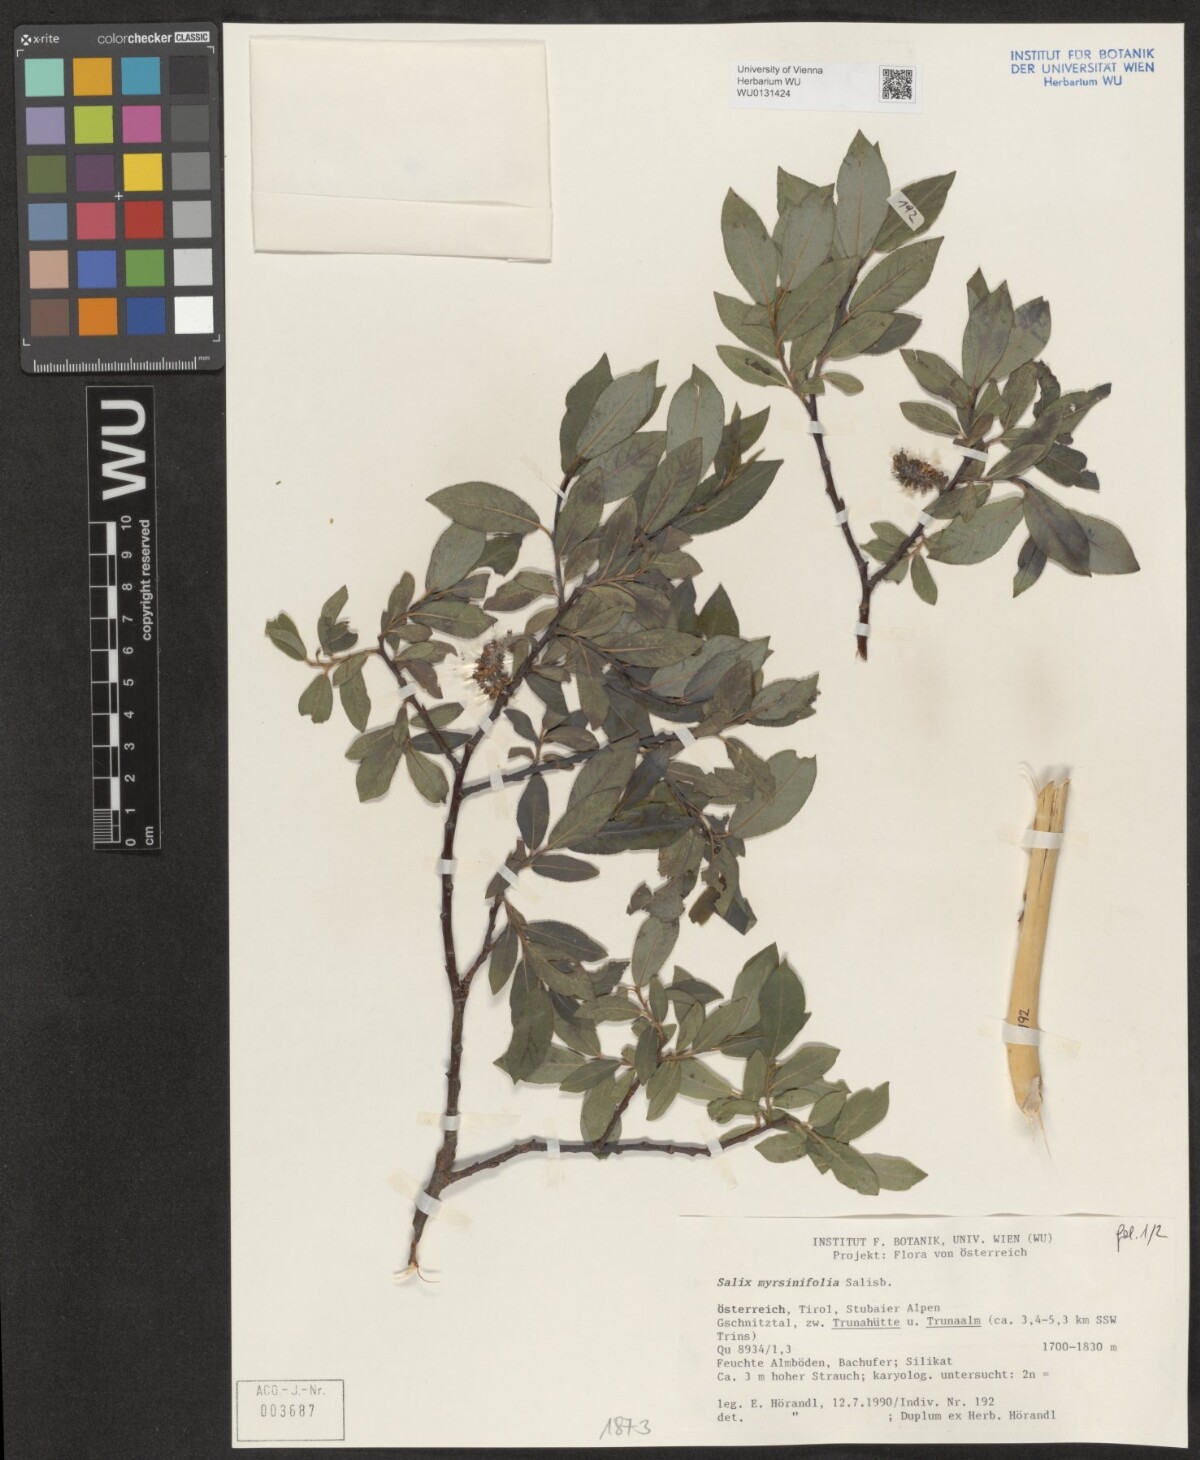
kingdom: Plantae
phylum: Tracheophyta
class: Magnoliopsida
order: Malpighiales
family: Salicaceae
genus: Salix
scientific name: Salix myrsinifolia
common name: Dark-leaved willow
